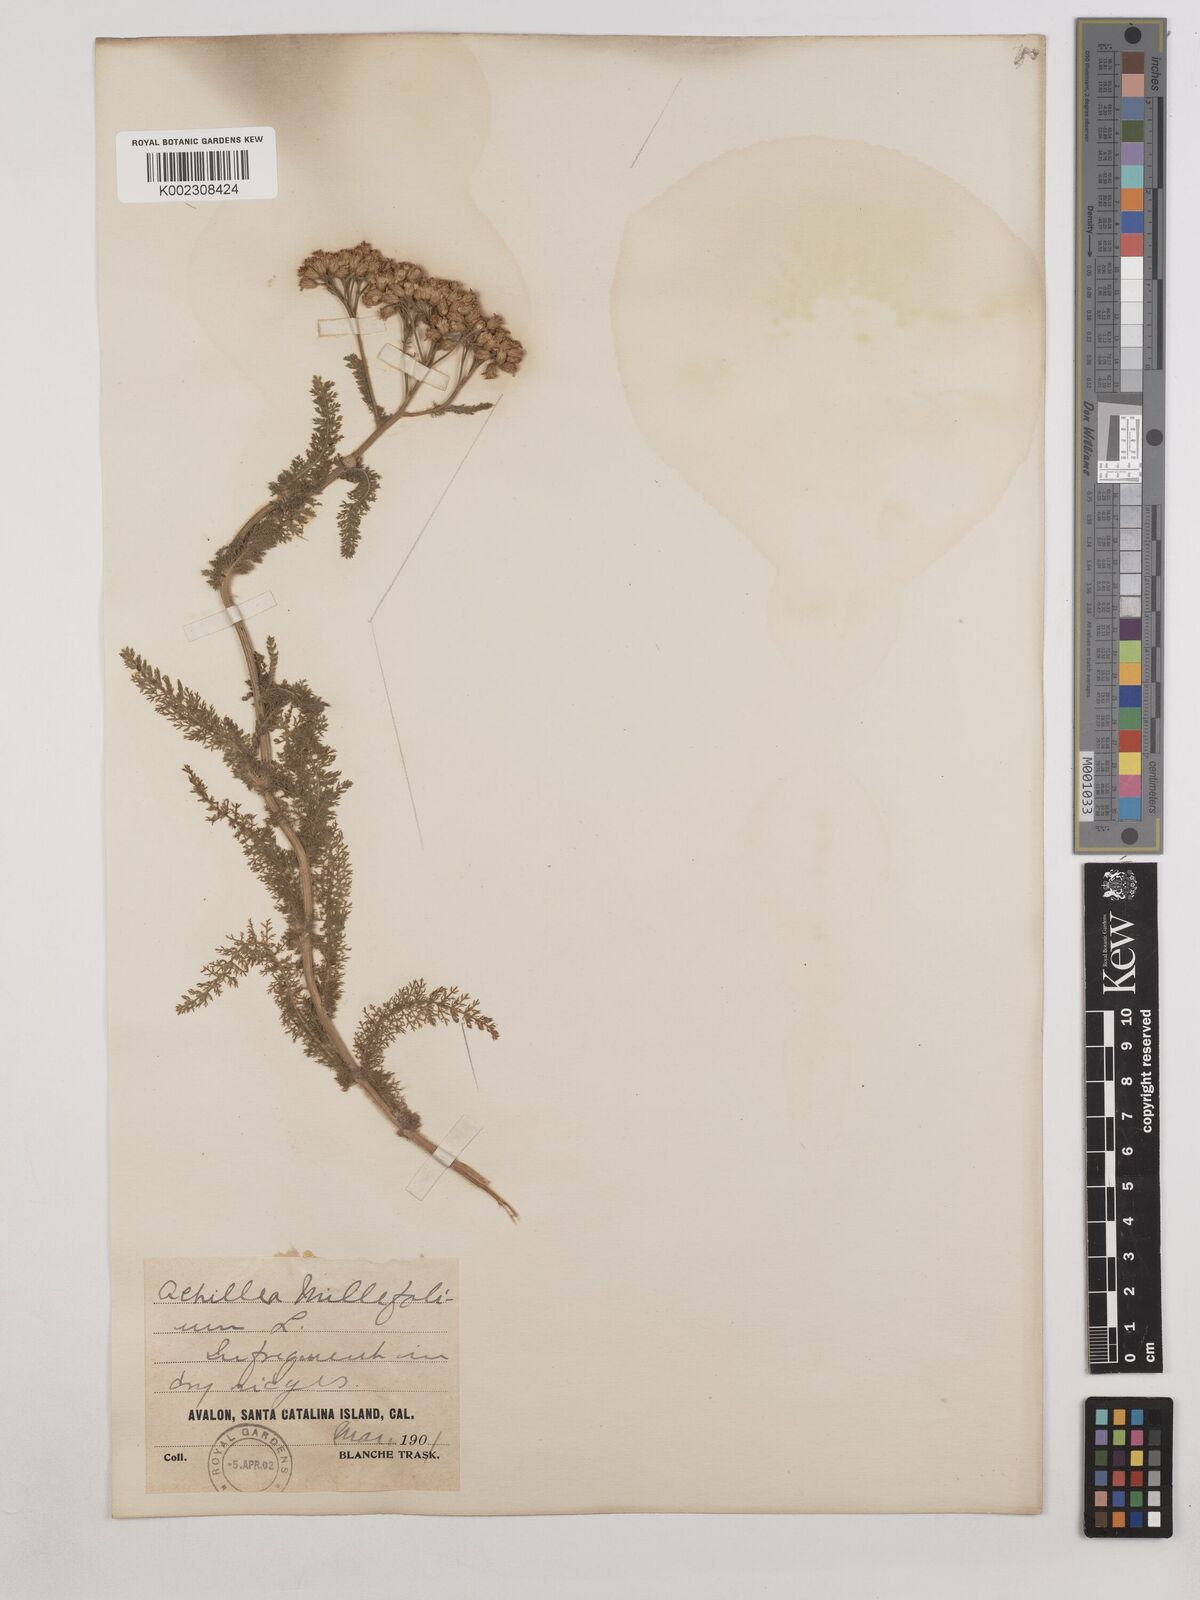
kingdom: Plantae
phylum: Tracheophyta
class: Magnoliopsida
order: Asterales
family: Asteraceae
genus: Achillea
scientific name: Achillea millefolium
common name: Yarrow
